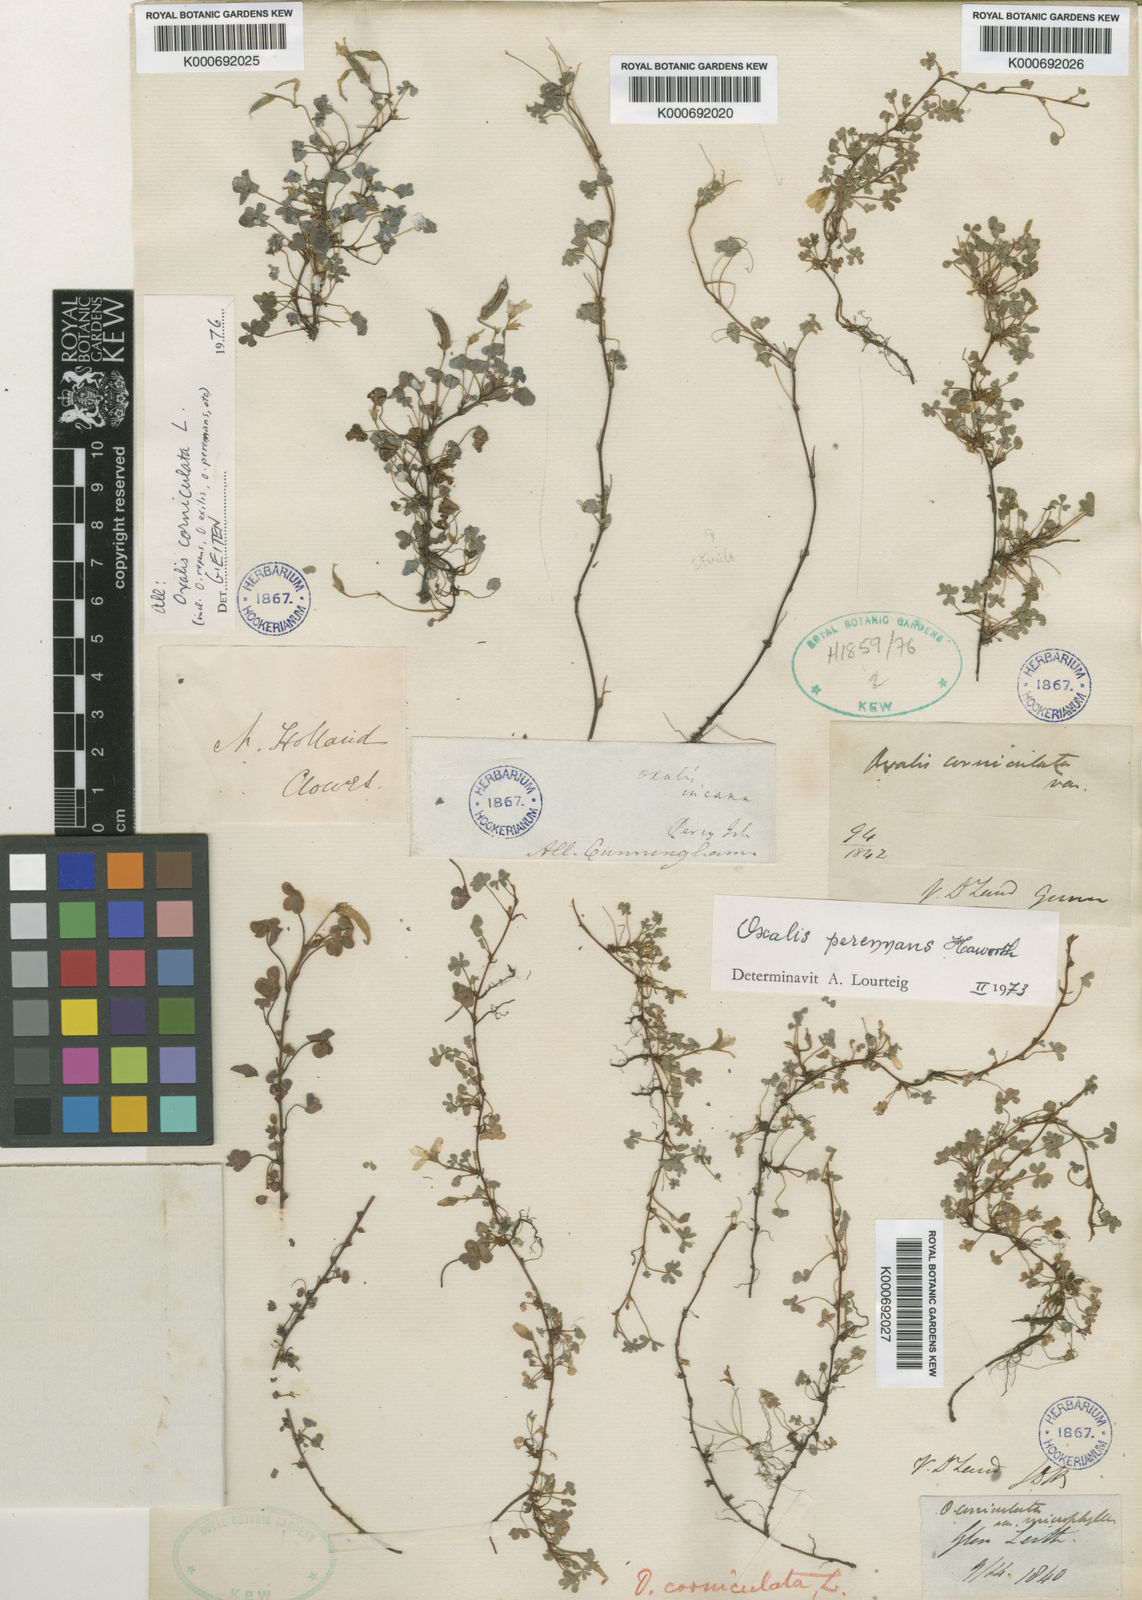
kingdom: Plantae
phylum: Tracheophyta
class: Magnoliopsida
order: Oxalidales
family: Oxalidaceae
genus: Oxalis
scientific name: Oxalis corniculata
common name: Procumbent yellow-sorrel
